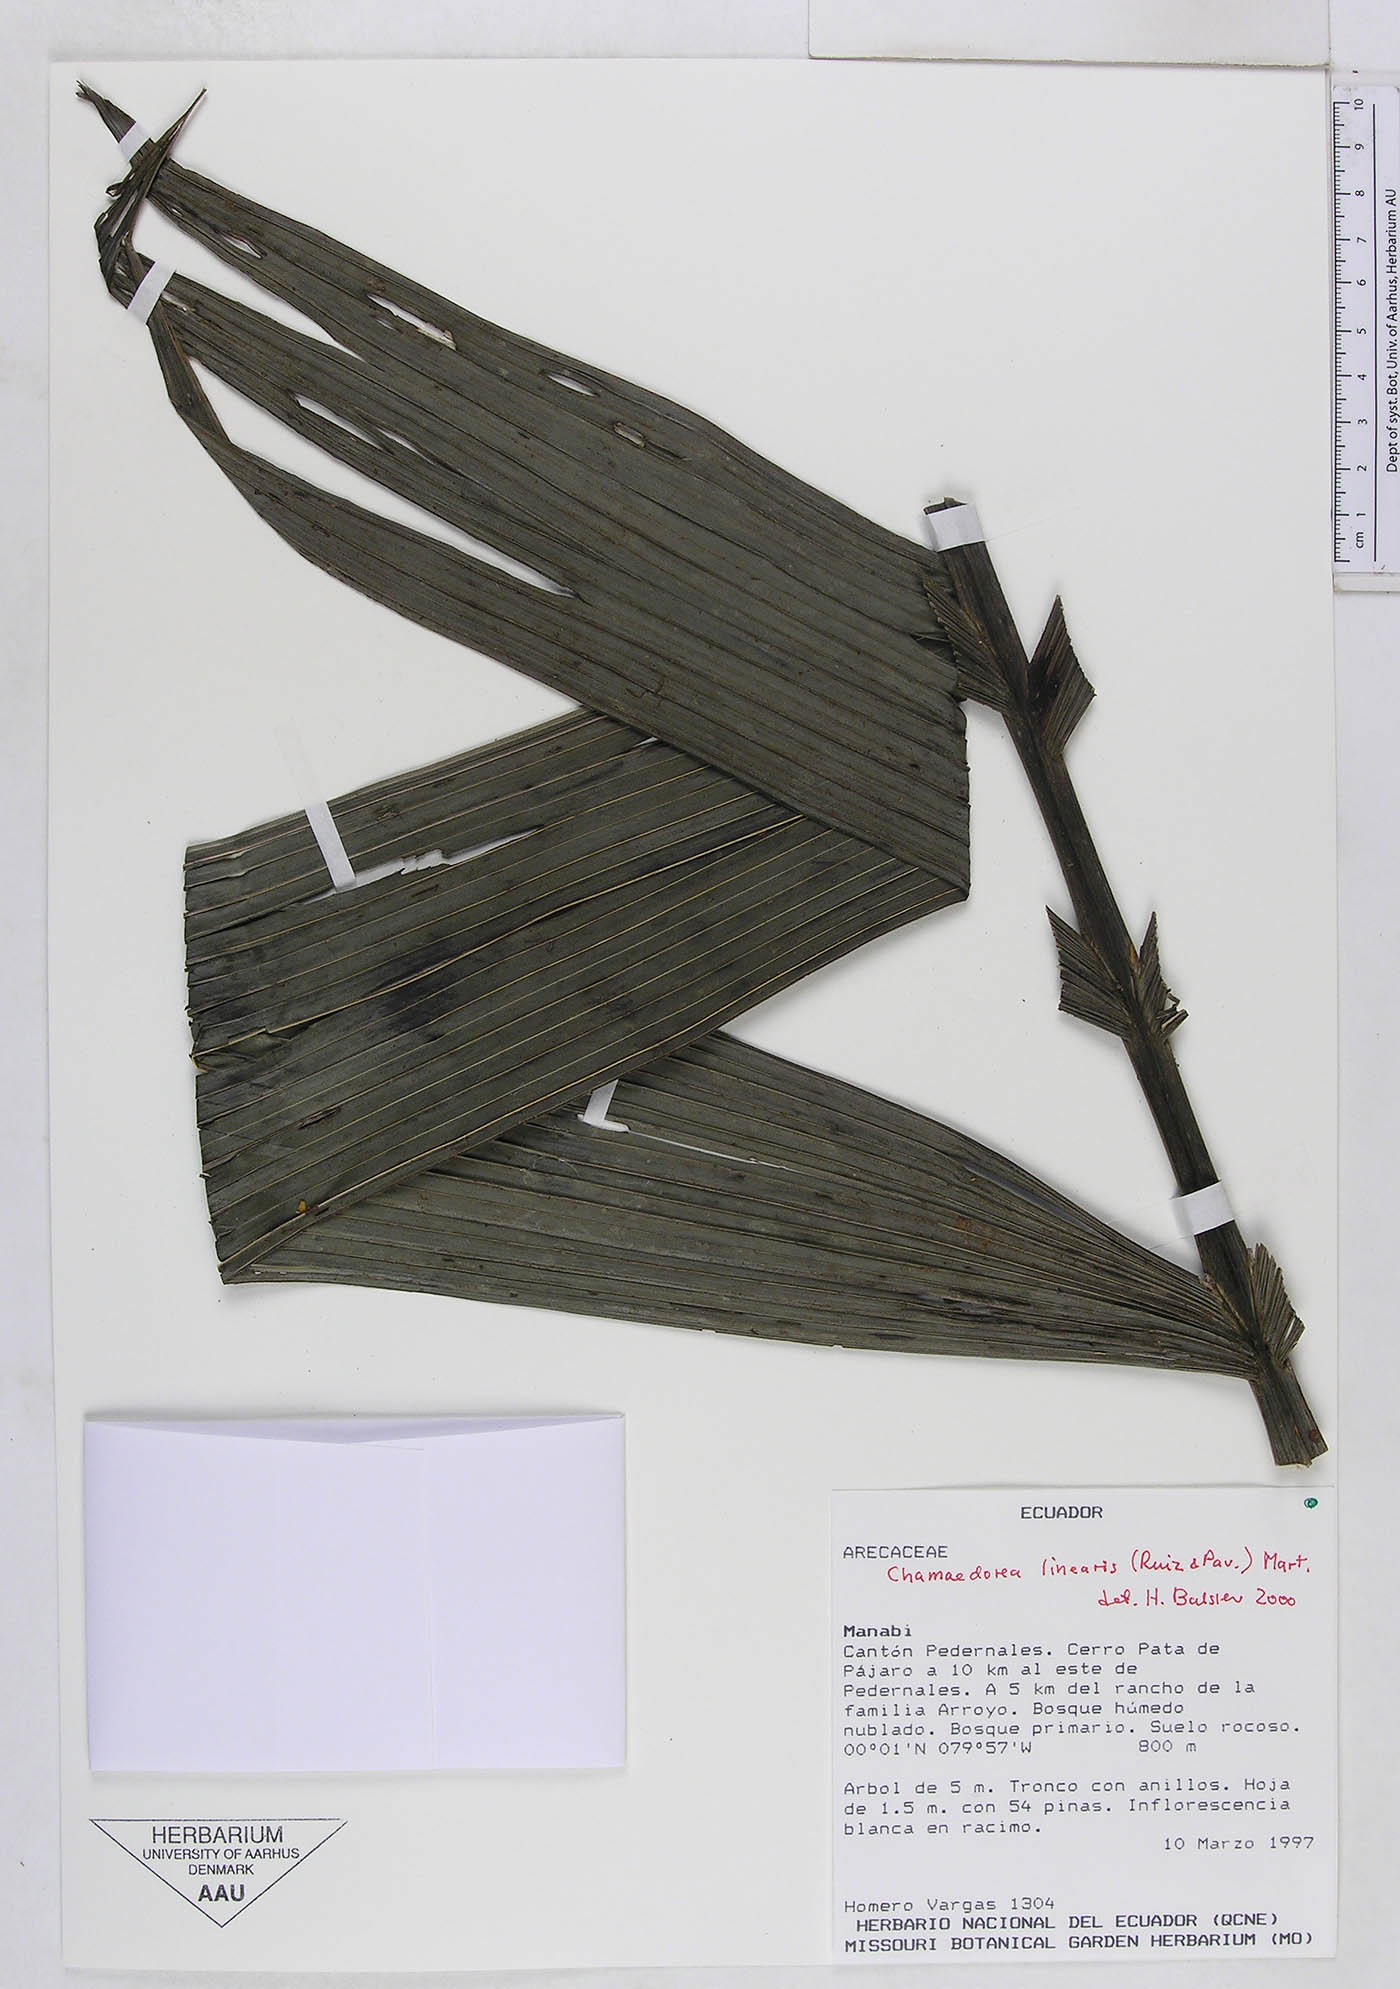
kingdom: Plantae
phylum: Tracheophyta
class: Liliopsida
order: Arecales
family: Arecaceae
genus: Chamaedorea
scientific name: Chamaedorea linearis
